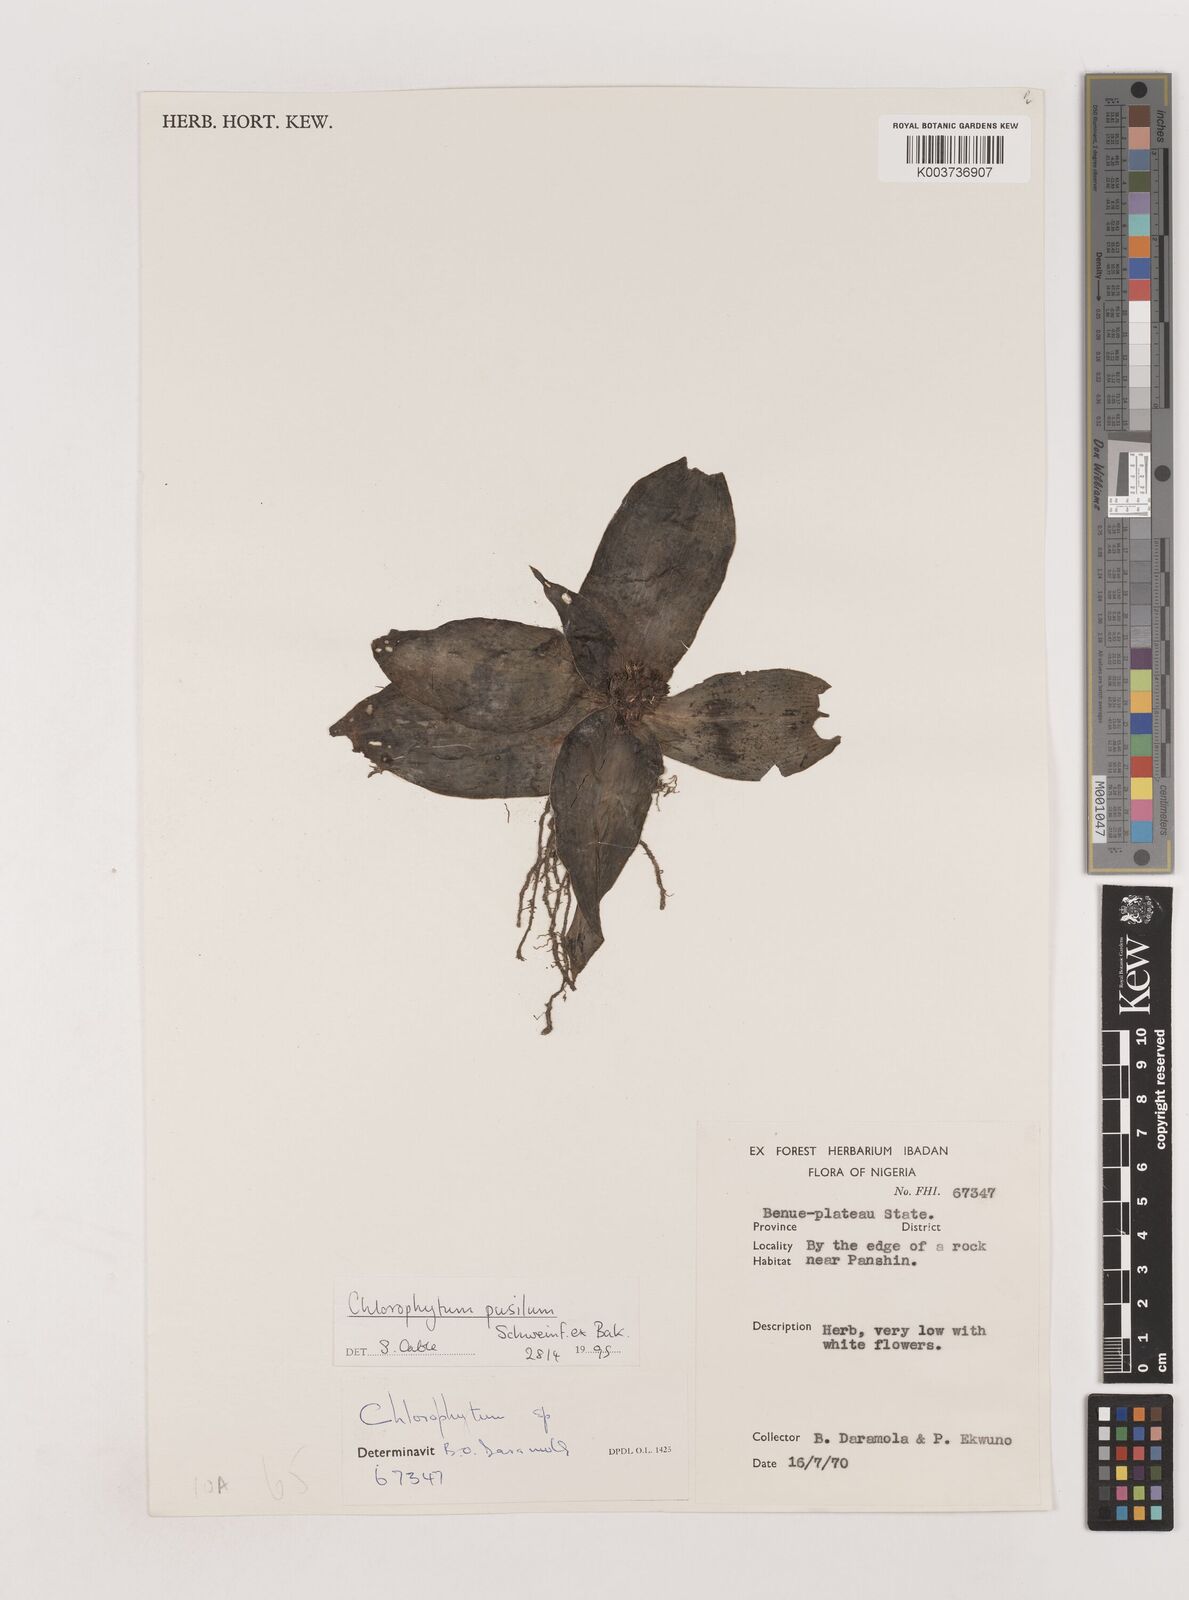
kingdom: Plantae
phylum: Tracheophyta
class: Liliopsida
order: Asparagales
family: Asparagaceae
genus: Chlorophytum
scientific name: Chlorophytum pusillum
